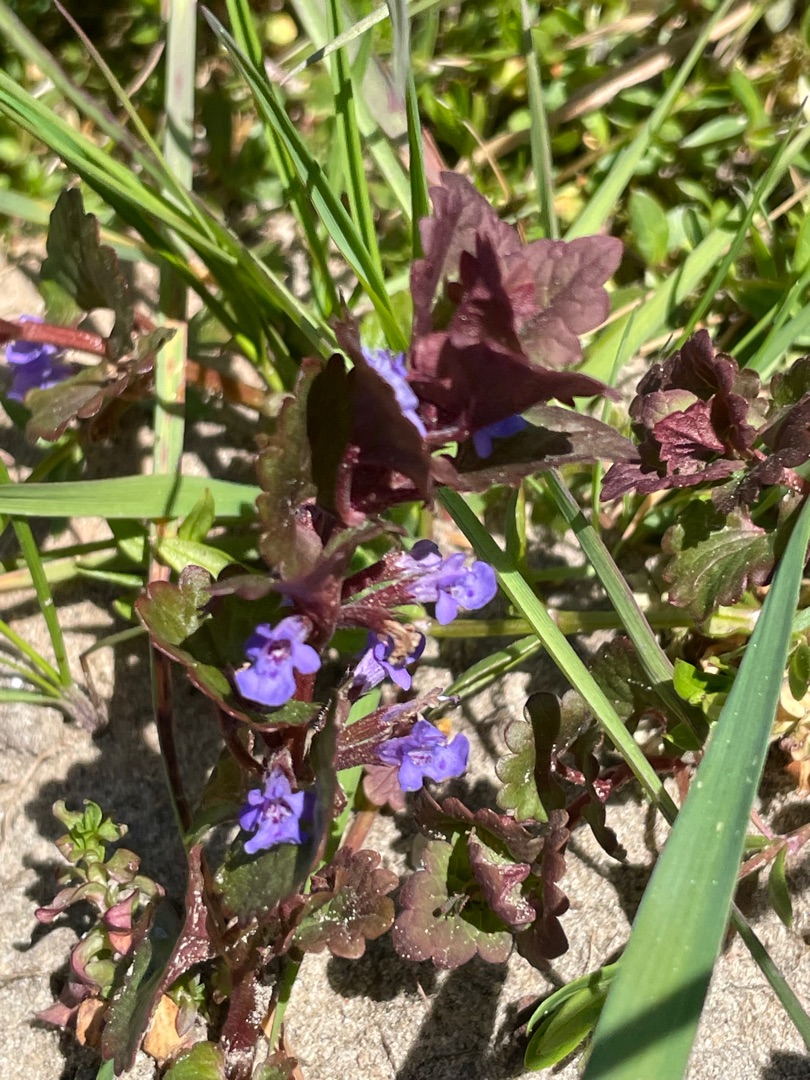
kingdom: Plantae
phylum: Tracheophyta
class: Magnoliopsida
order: Lamiales
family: Lamiaceae
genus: Glechoma
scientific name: Glechoma hederacea
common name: Korsknap
